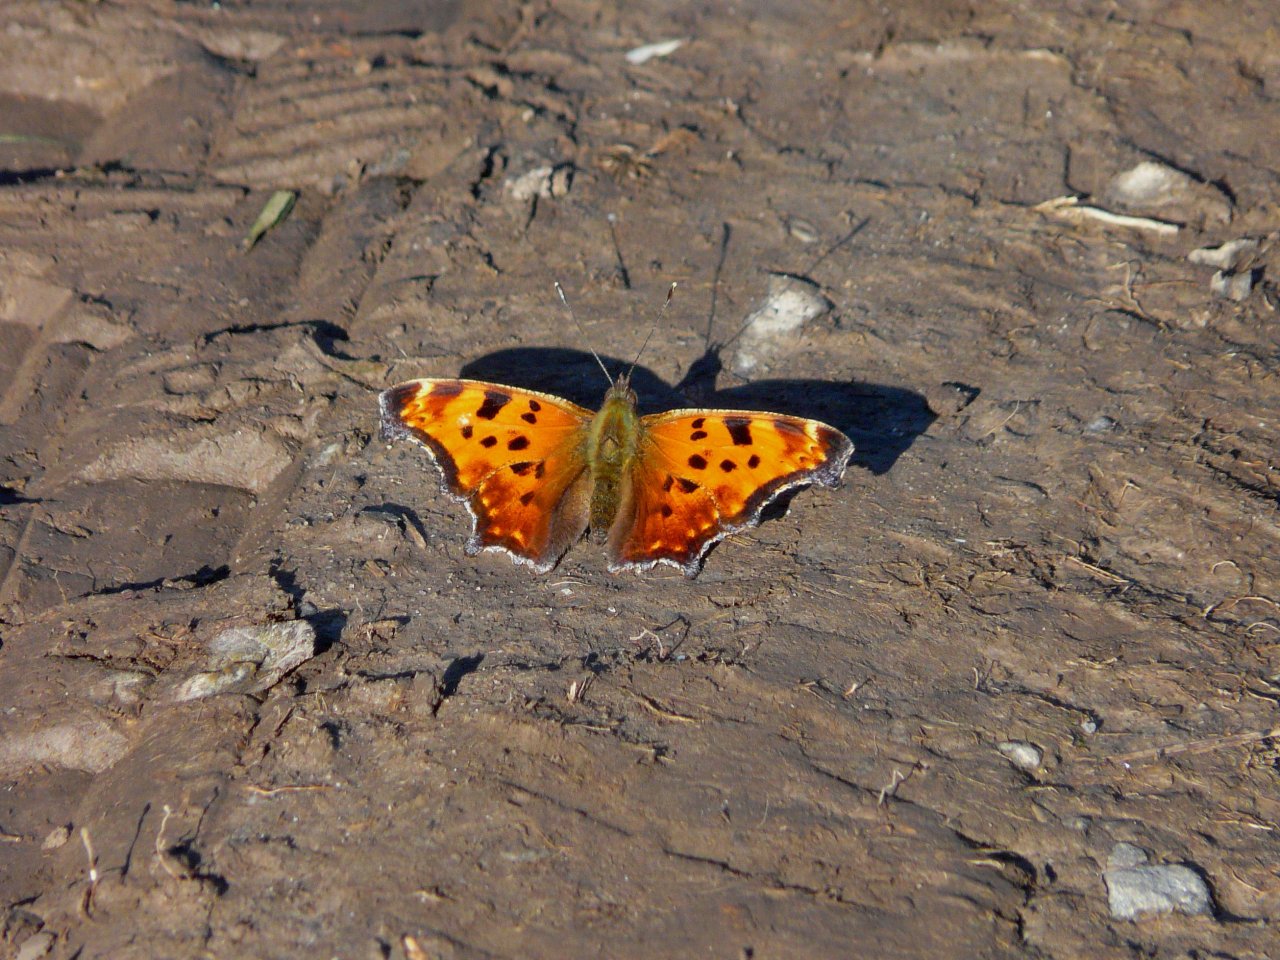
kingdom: Animalia
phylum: Arthropoda
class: Insecta
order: Lepidoptera
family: Nymphalidae
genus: Polygonia
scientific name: Polygonia comma
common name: Eastern Comma
